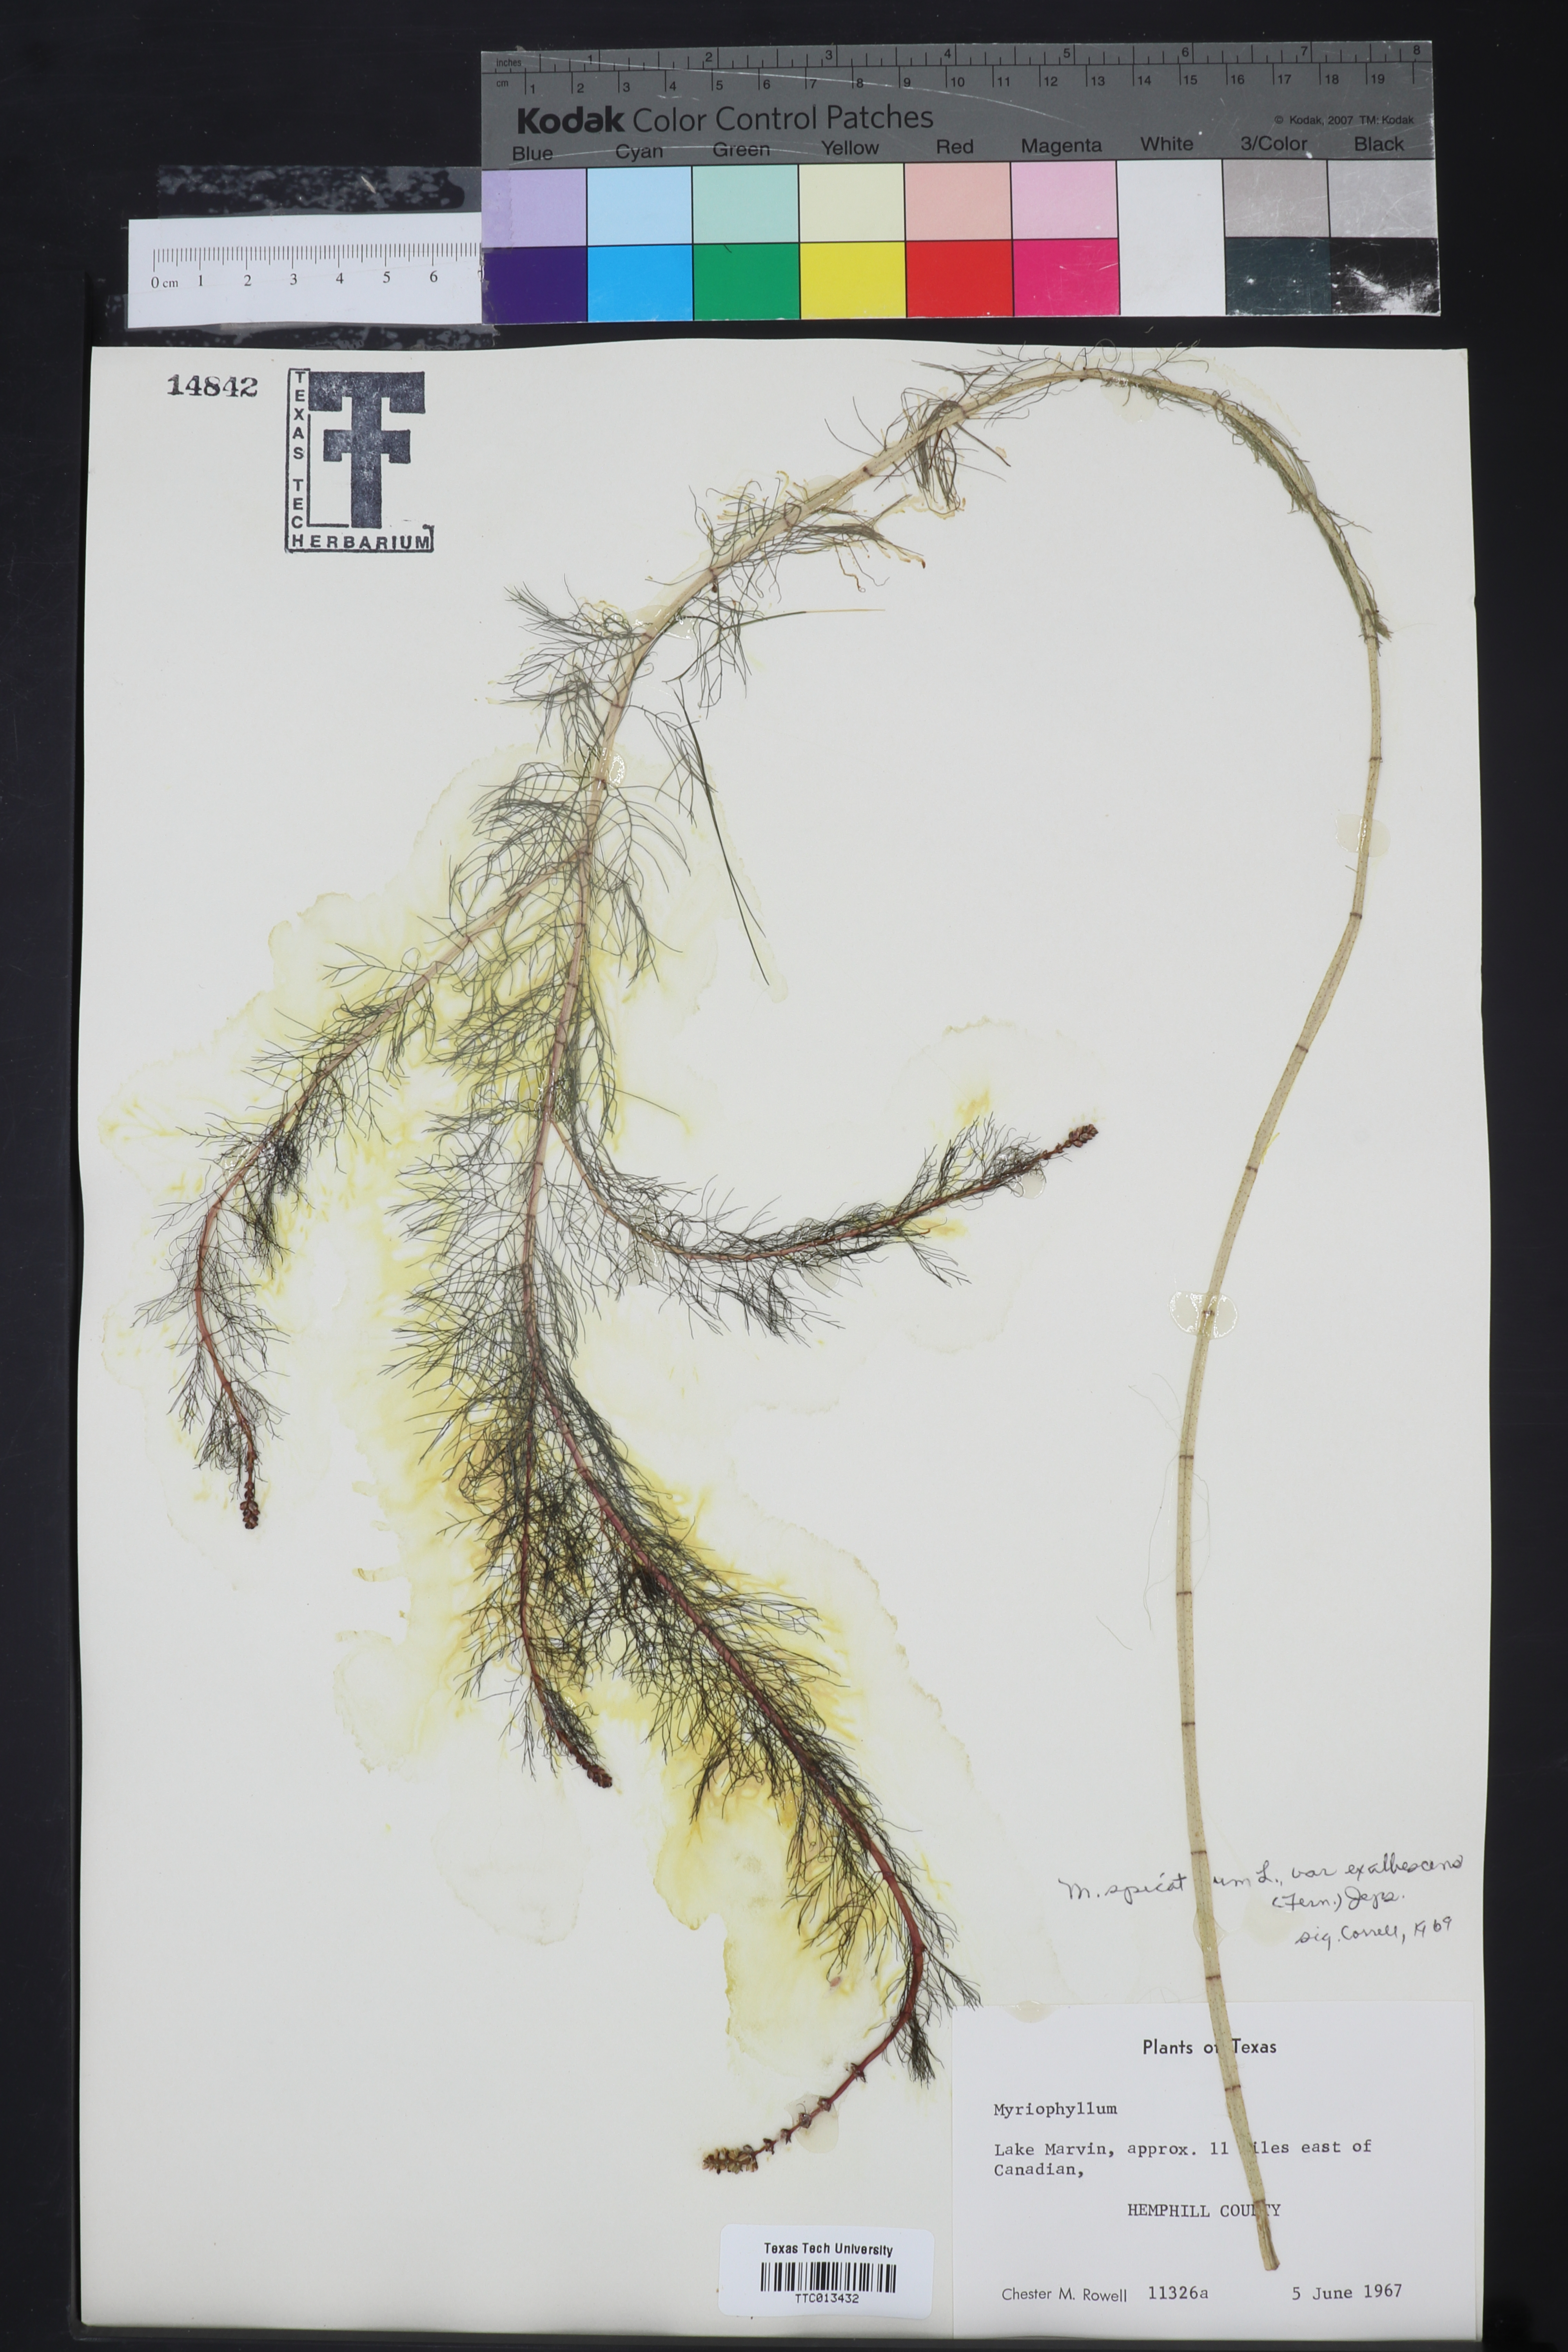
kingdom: Plantae
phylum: Tracheophyta
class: Magnoliopsida
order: Saxifragales
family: Haloragaceae
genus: Myriophyllum
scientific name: Myriophyllum sibiricum
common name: Siberian water-milfoil
